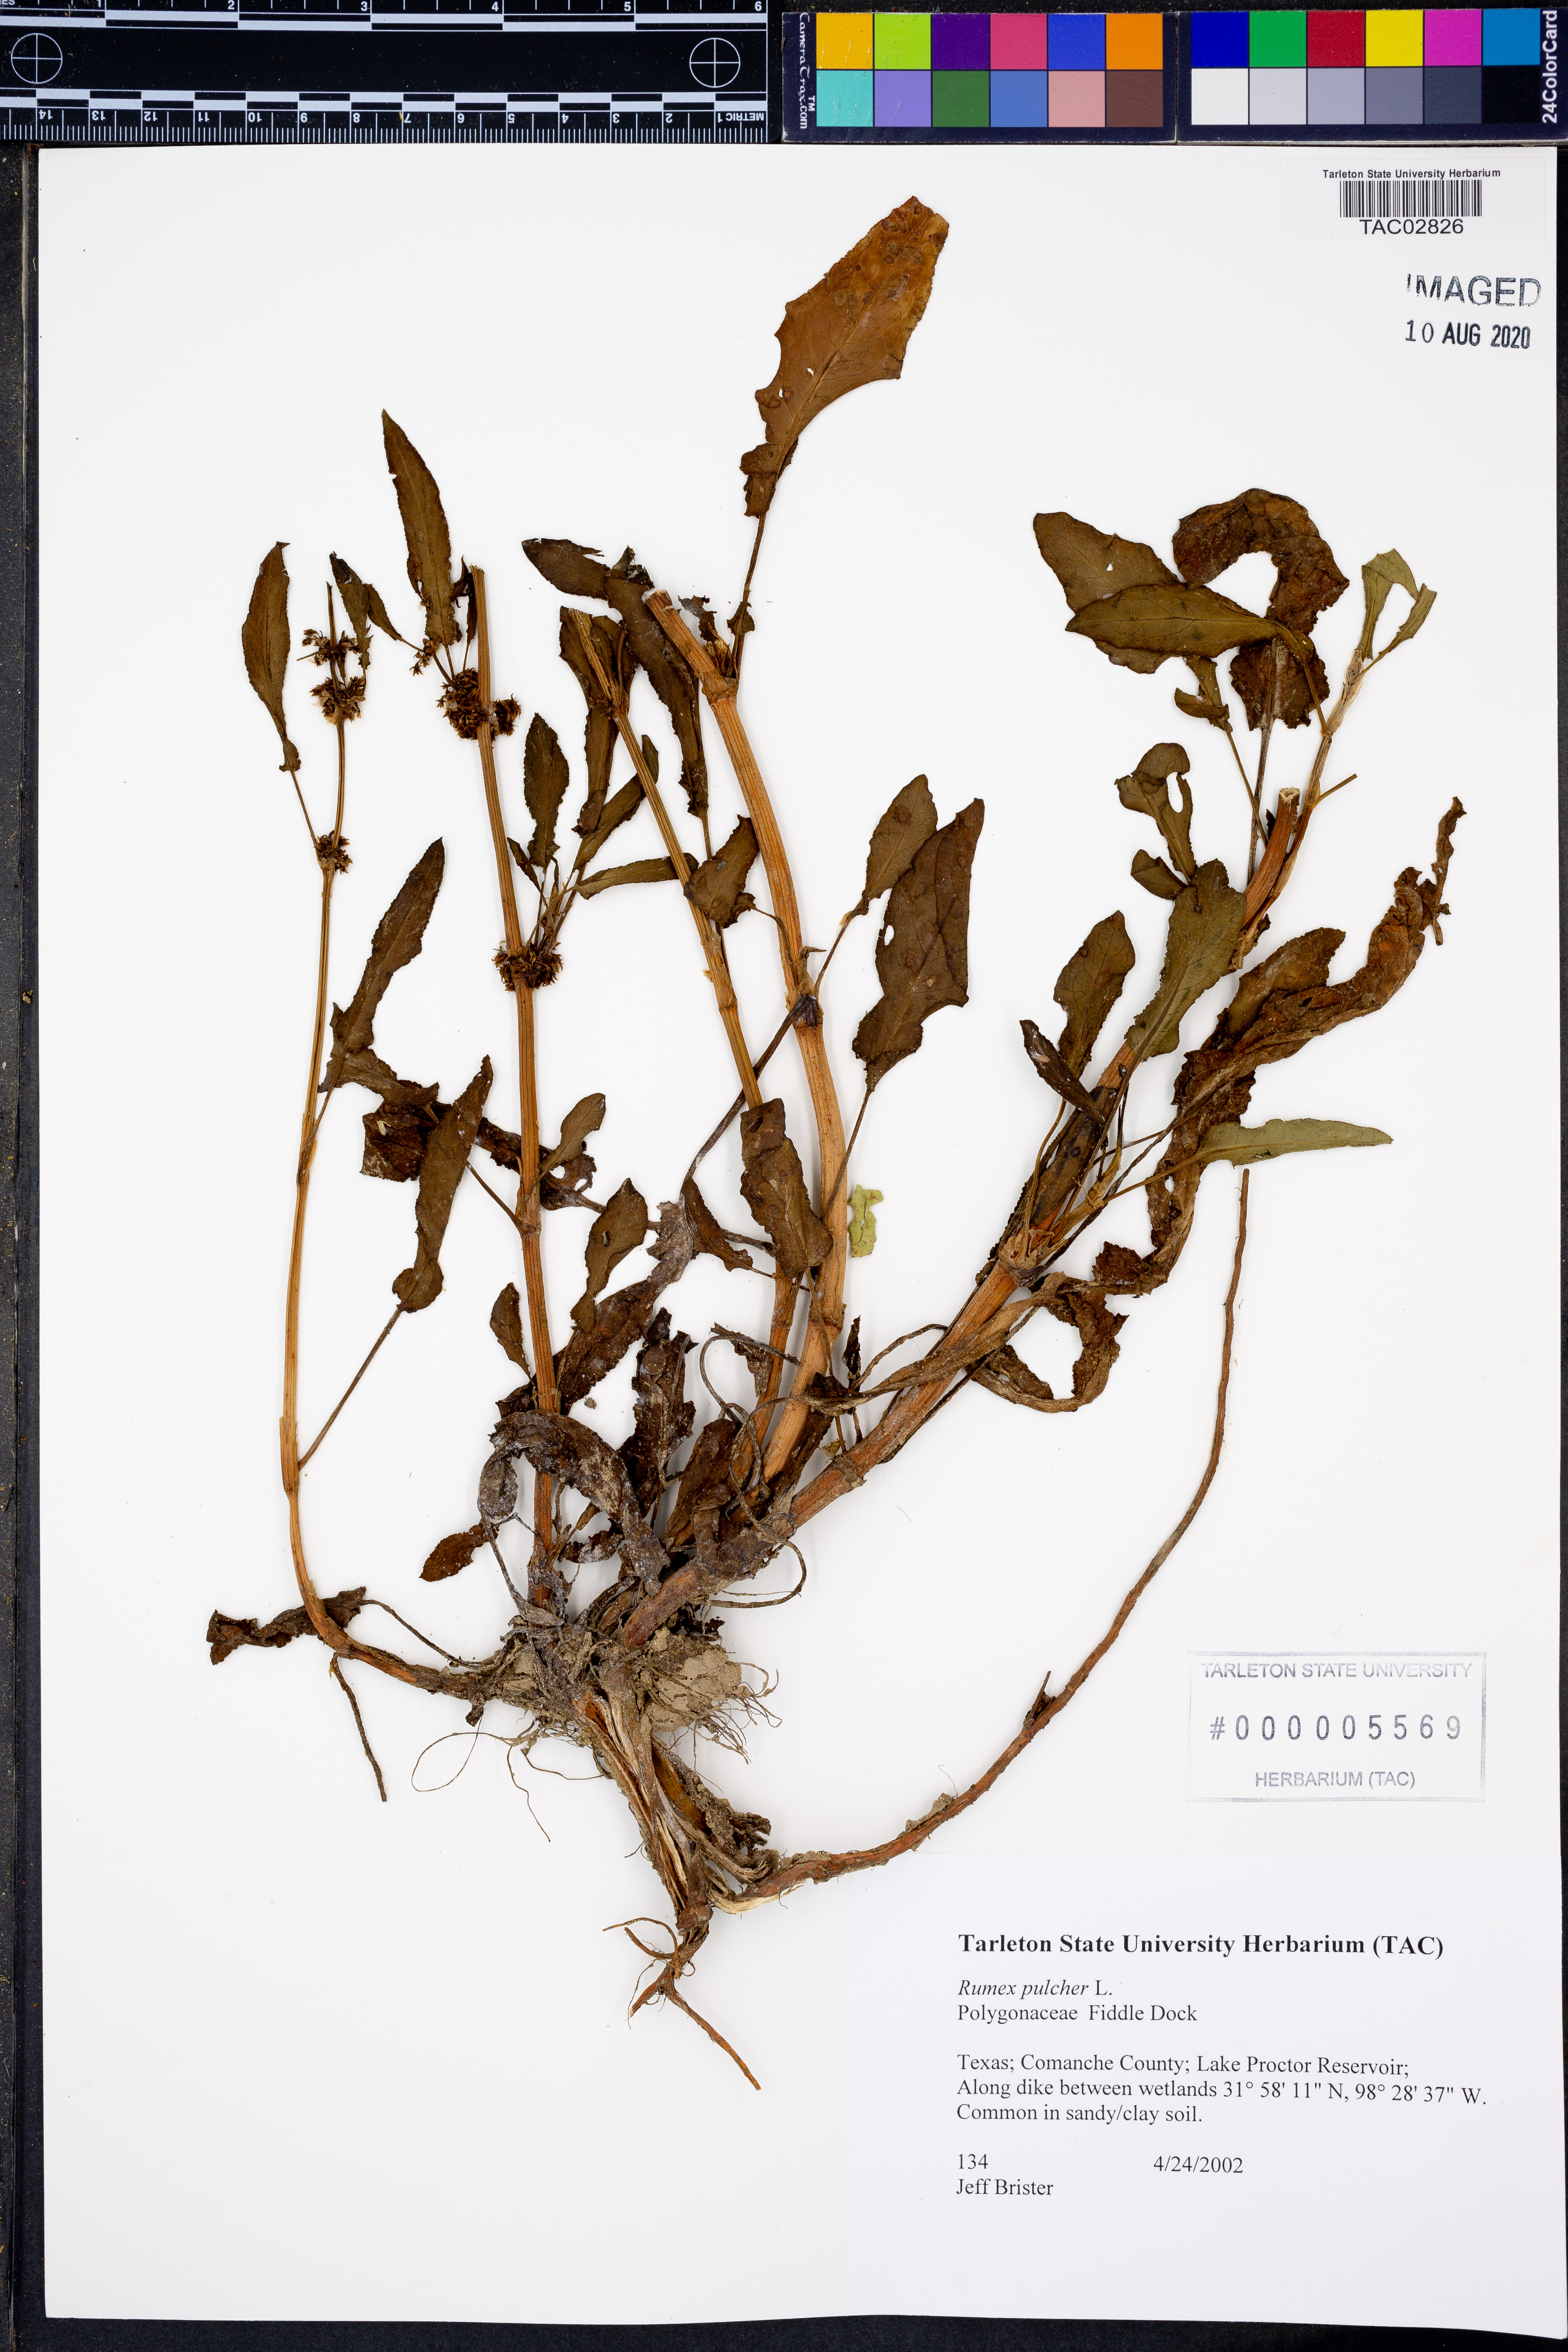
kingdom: Plantae
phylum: Tracheophyta
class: Magnoliopsida
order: Caryophyllales
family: Polygonaceae
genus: Rumex
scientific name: Rumex pulcher
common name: Fiddle dock
